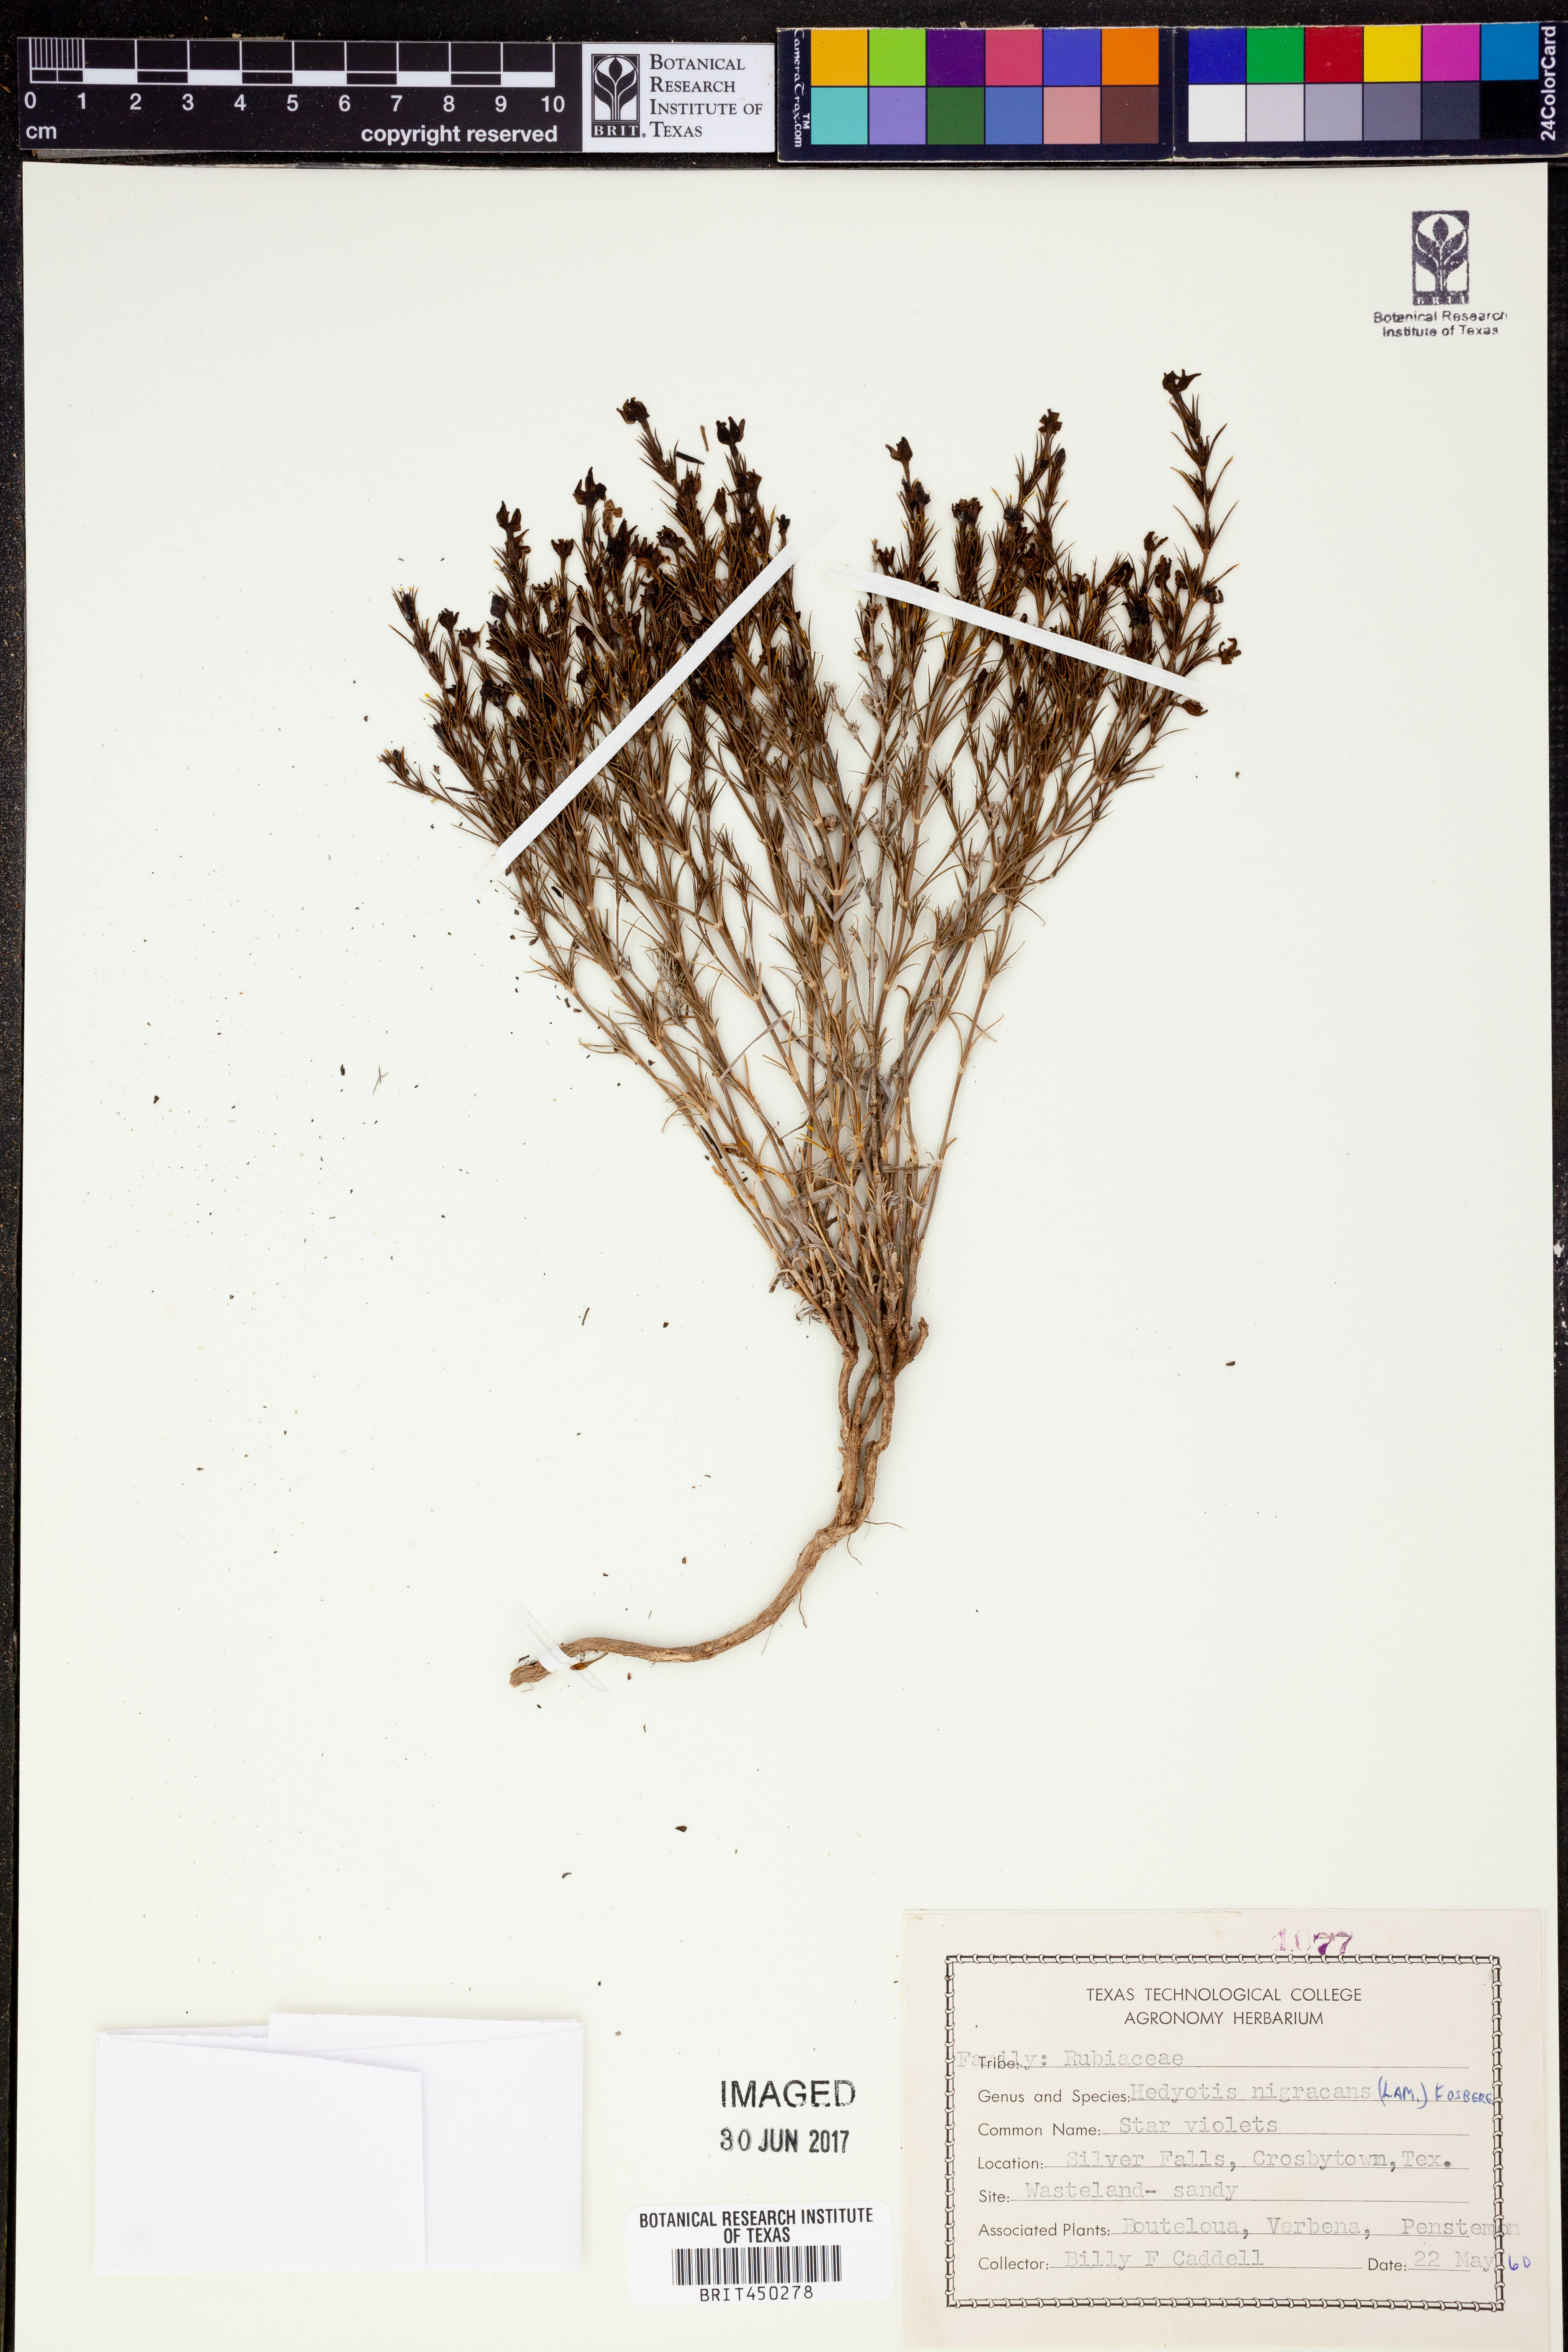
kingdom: Plantae
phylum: Tracheophyta
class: Magnoliopsida
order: Gentianales
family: Rubiaceae
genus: Stenaria
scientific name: Stenaria nigricans
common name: Diamondflowers
